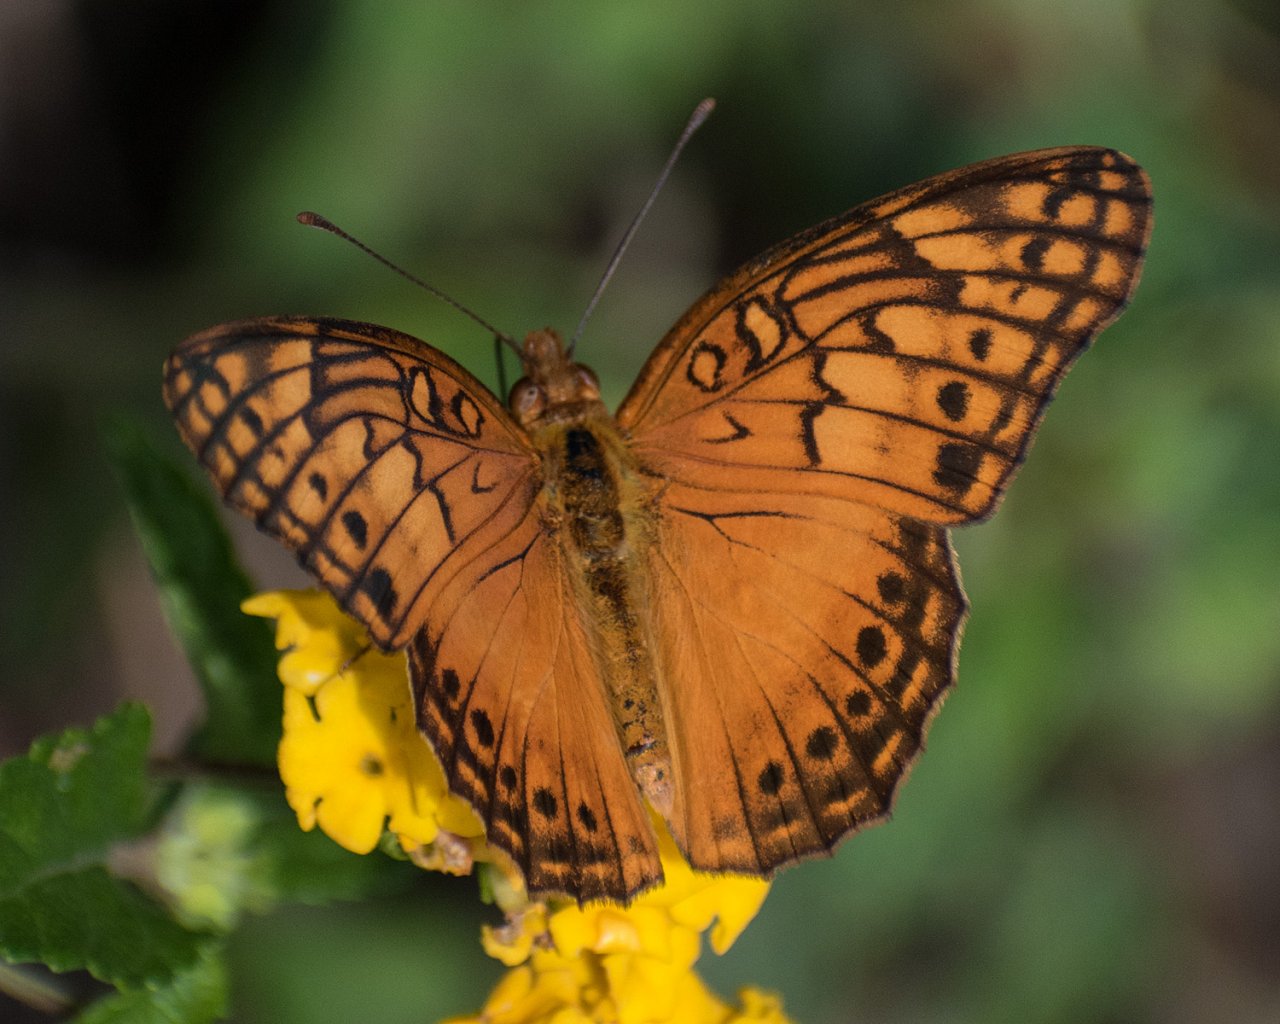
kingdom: Animalia
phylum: Arthropoda
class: Insecta
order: Lepidoptera
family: Nymphalidae
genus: Euptoieta
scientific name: Euptoieta hegesia
